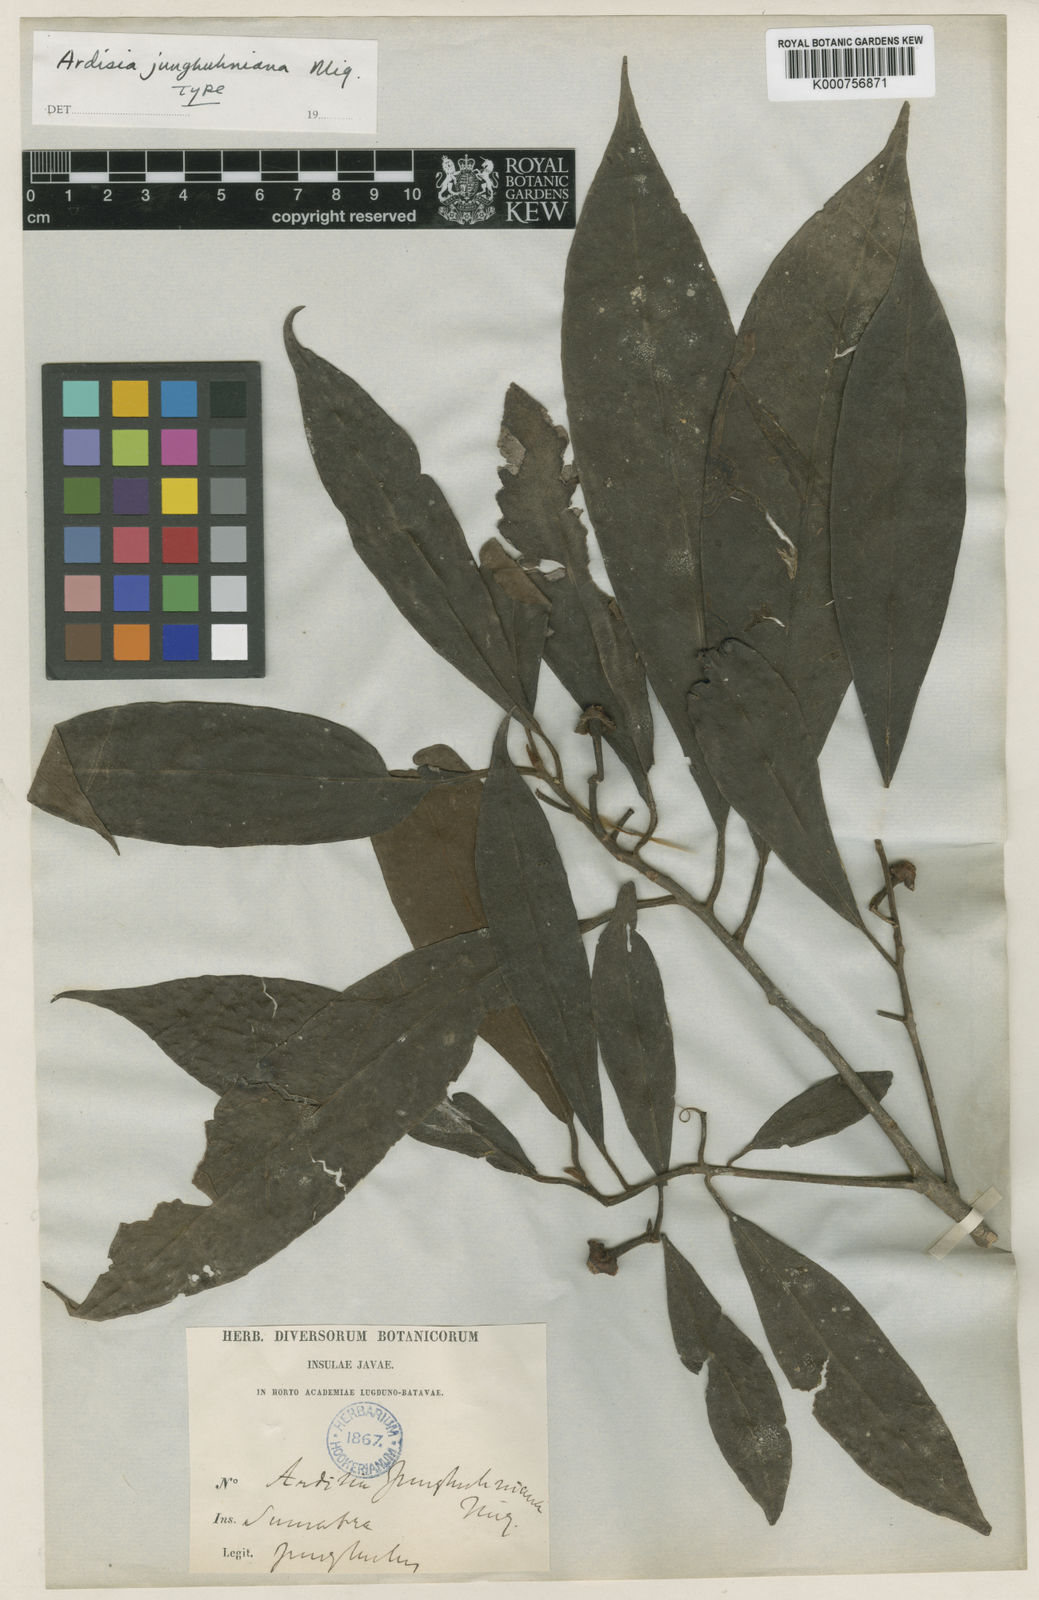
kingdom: Plantae
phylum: Tracheophyta
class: Magnoliopsida
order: Ericales
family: Primulaceae
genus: Ardisia
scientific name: Ardisia junghuhniana
